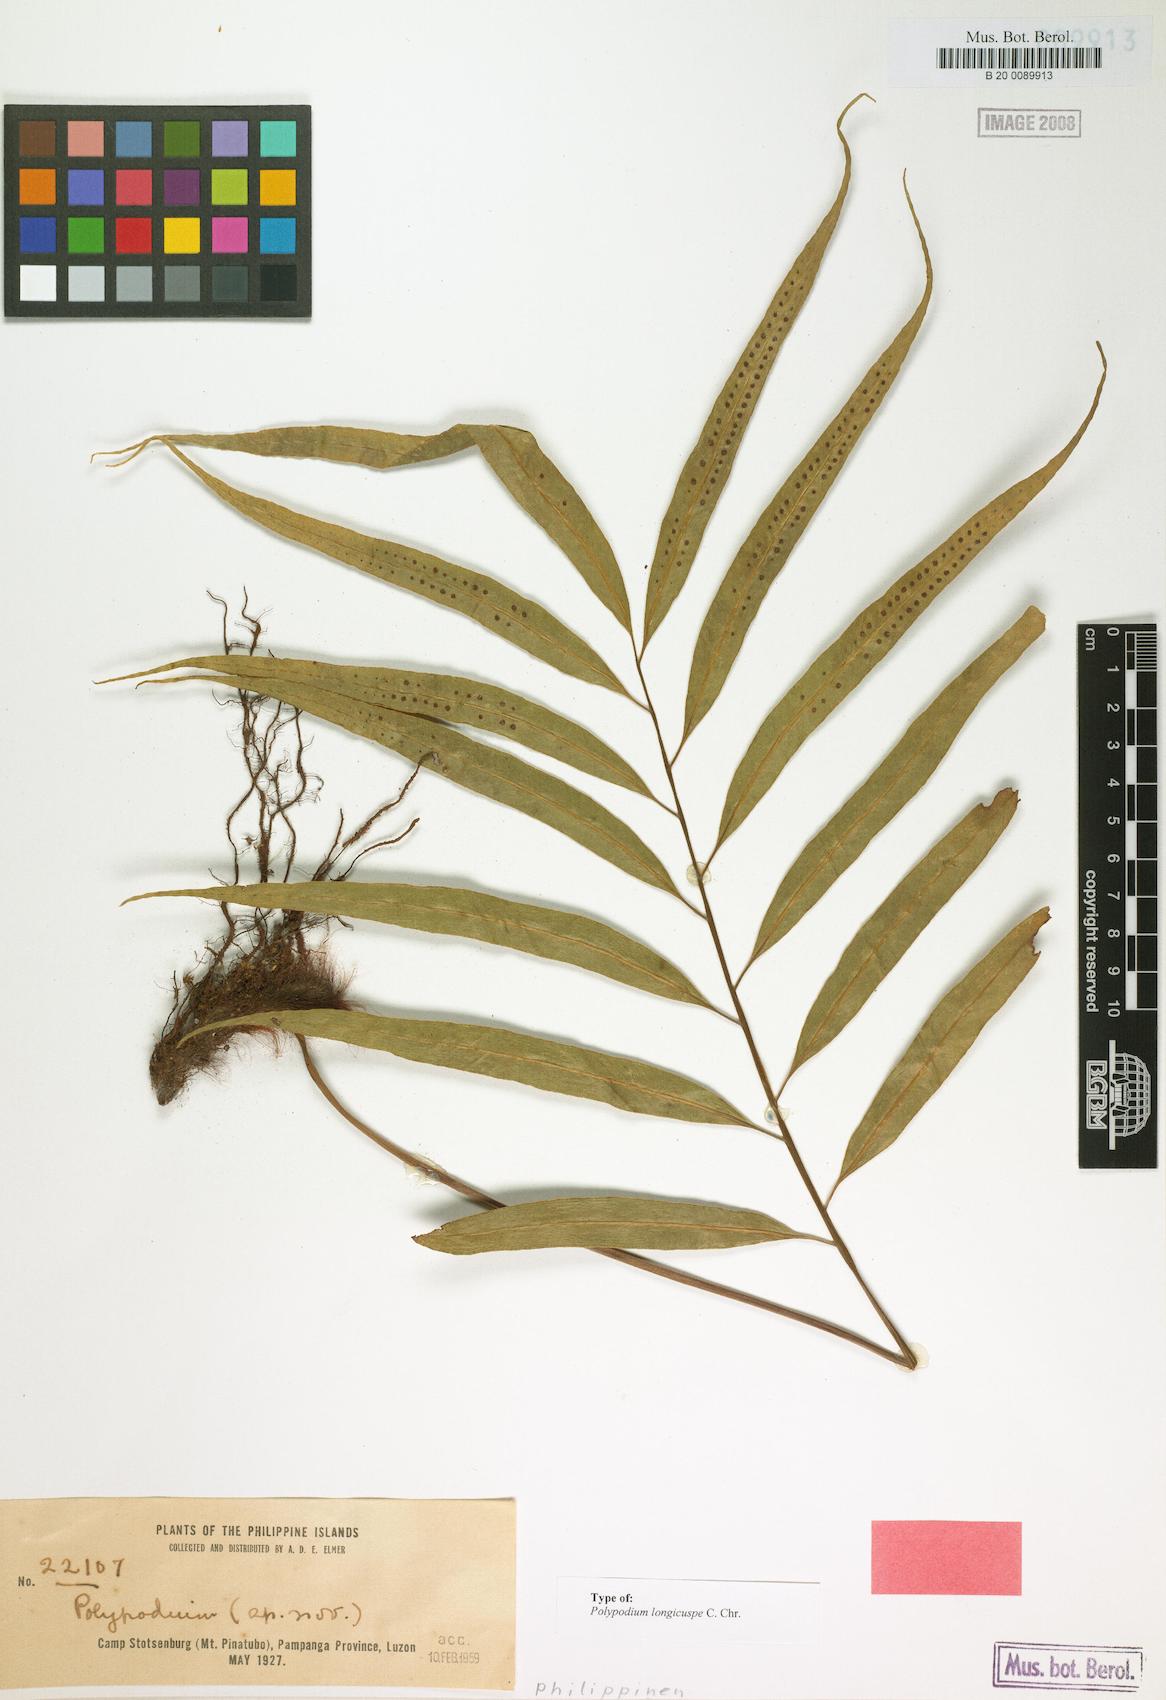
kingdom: Plantae
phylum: Tracheophyta
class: Polypodiopsida
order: Polypodiales
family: Polypodiaceae
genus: Selliguea
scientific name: Selliguea albidosquamata
